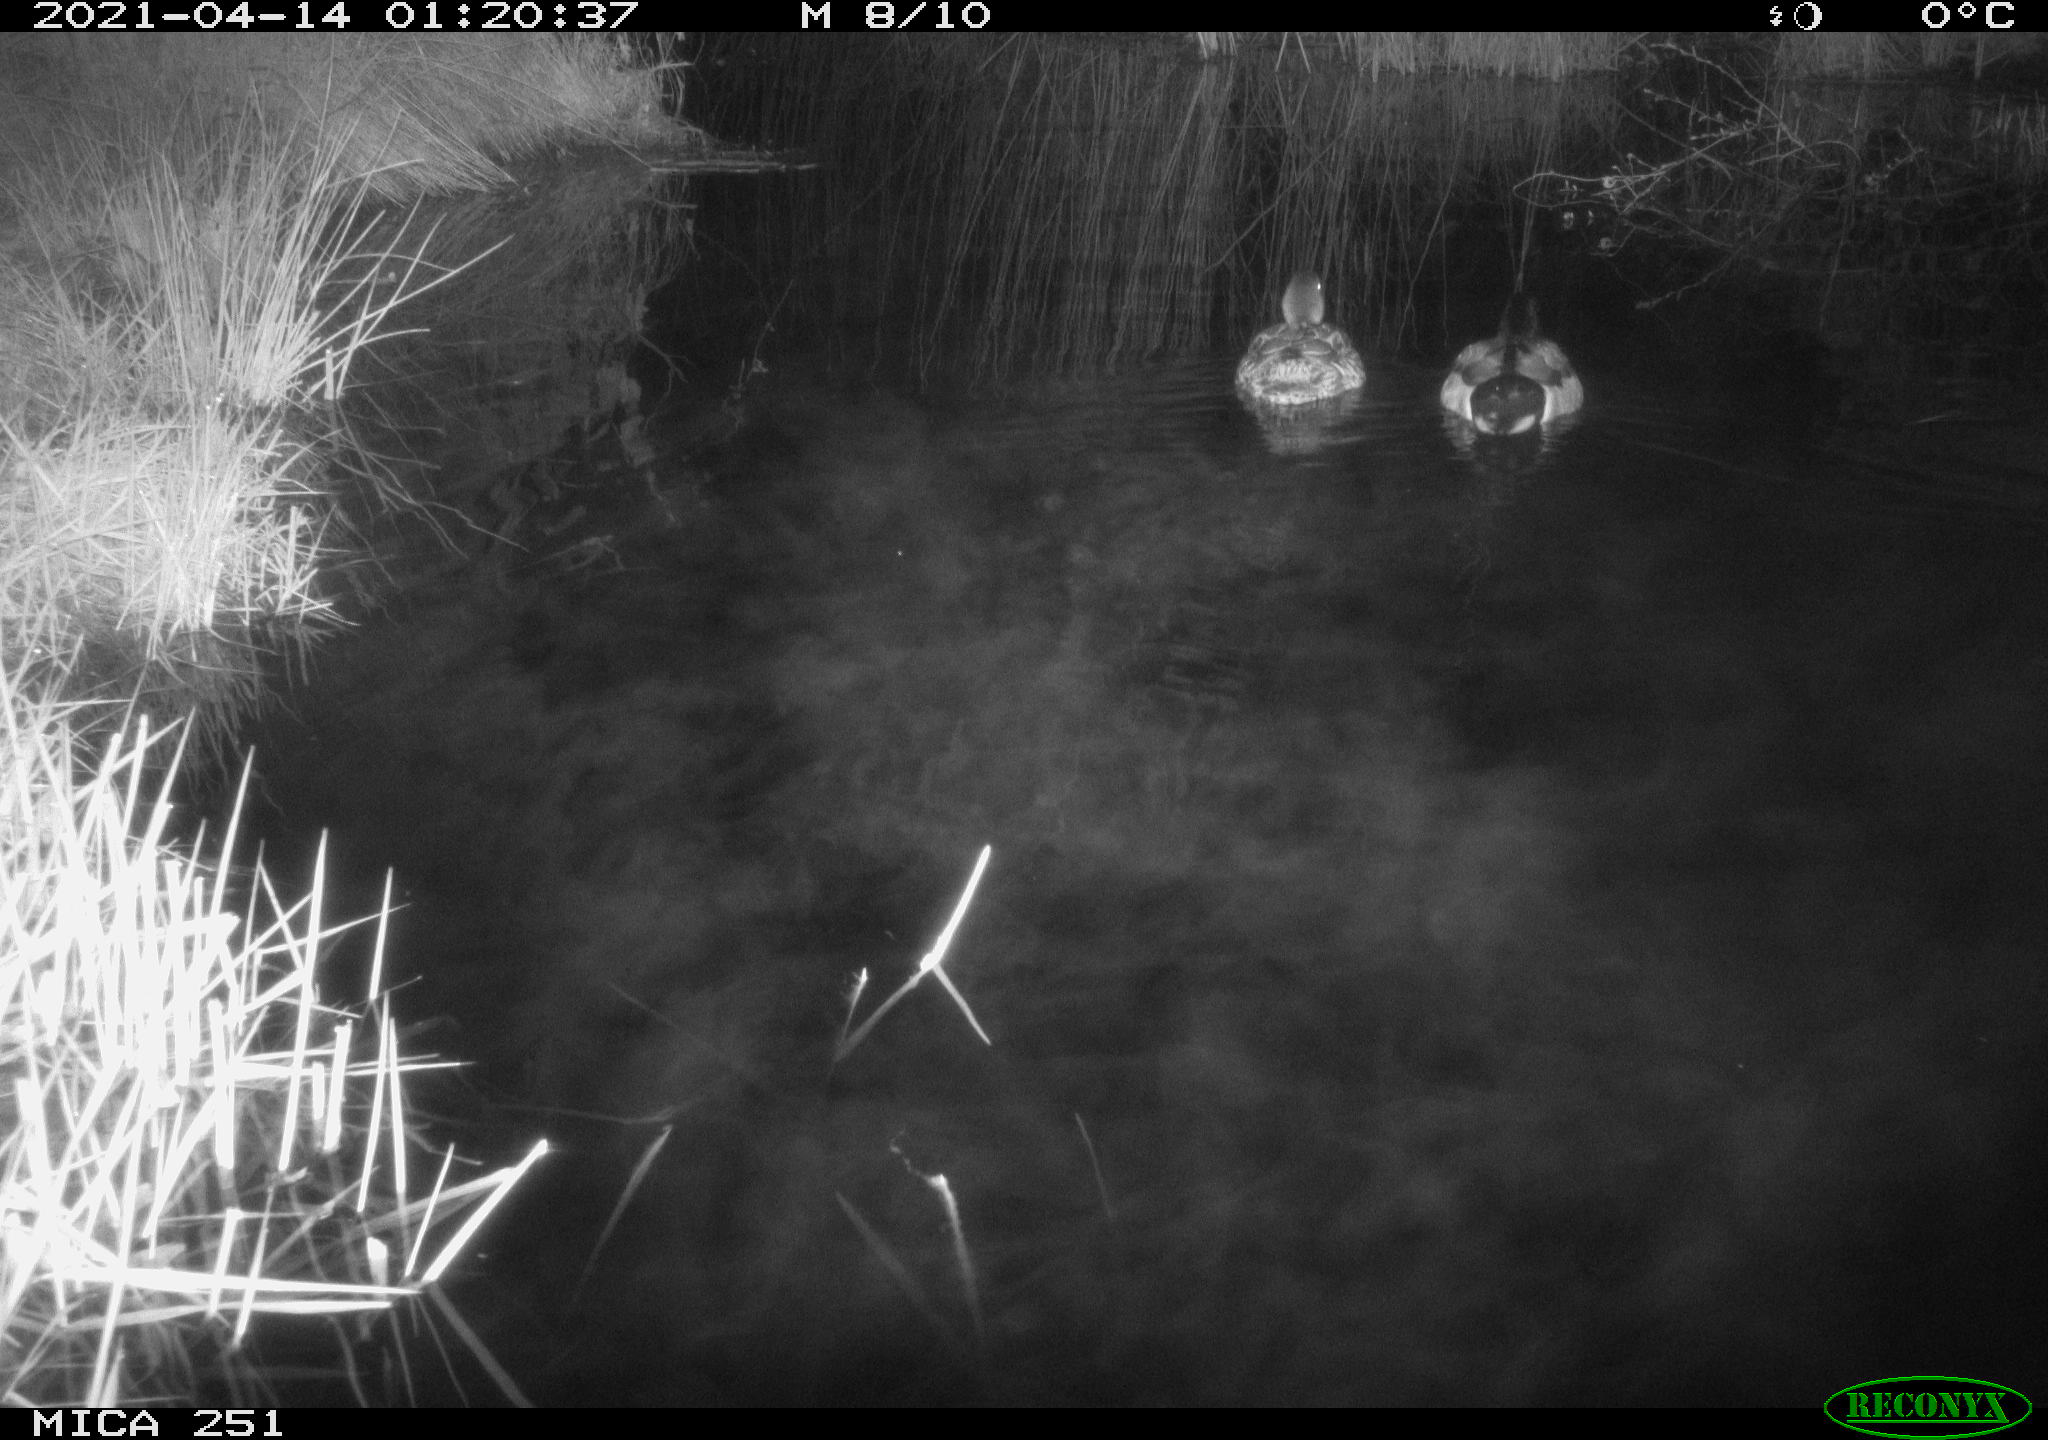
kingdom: Animalia
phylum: Chordata
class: Aves
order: Anseriformes
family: Anatidae
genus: Anas
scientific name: Anas platyrhynchos
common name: Mallard
